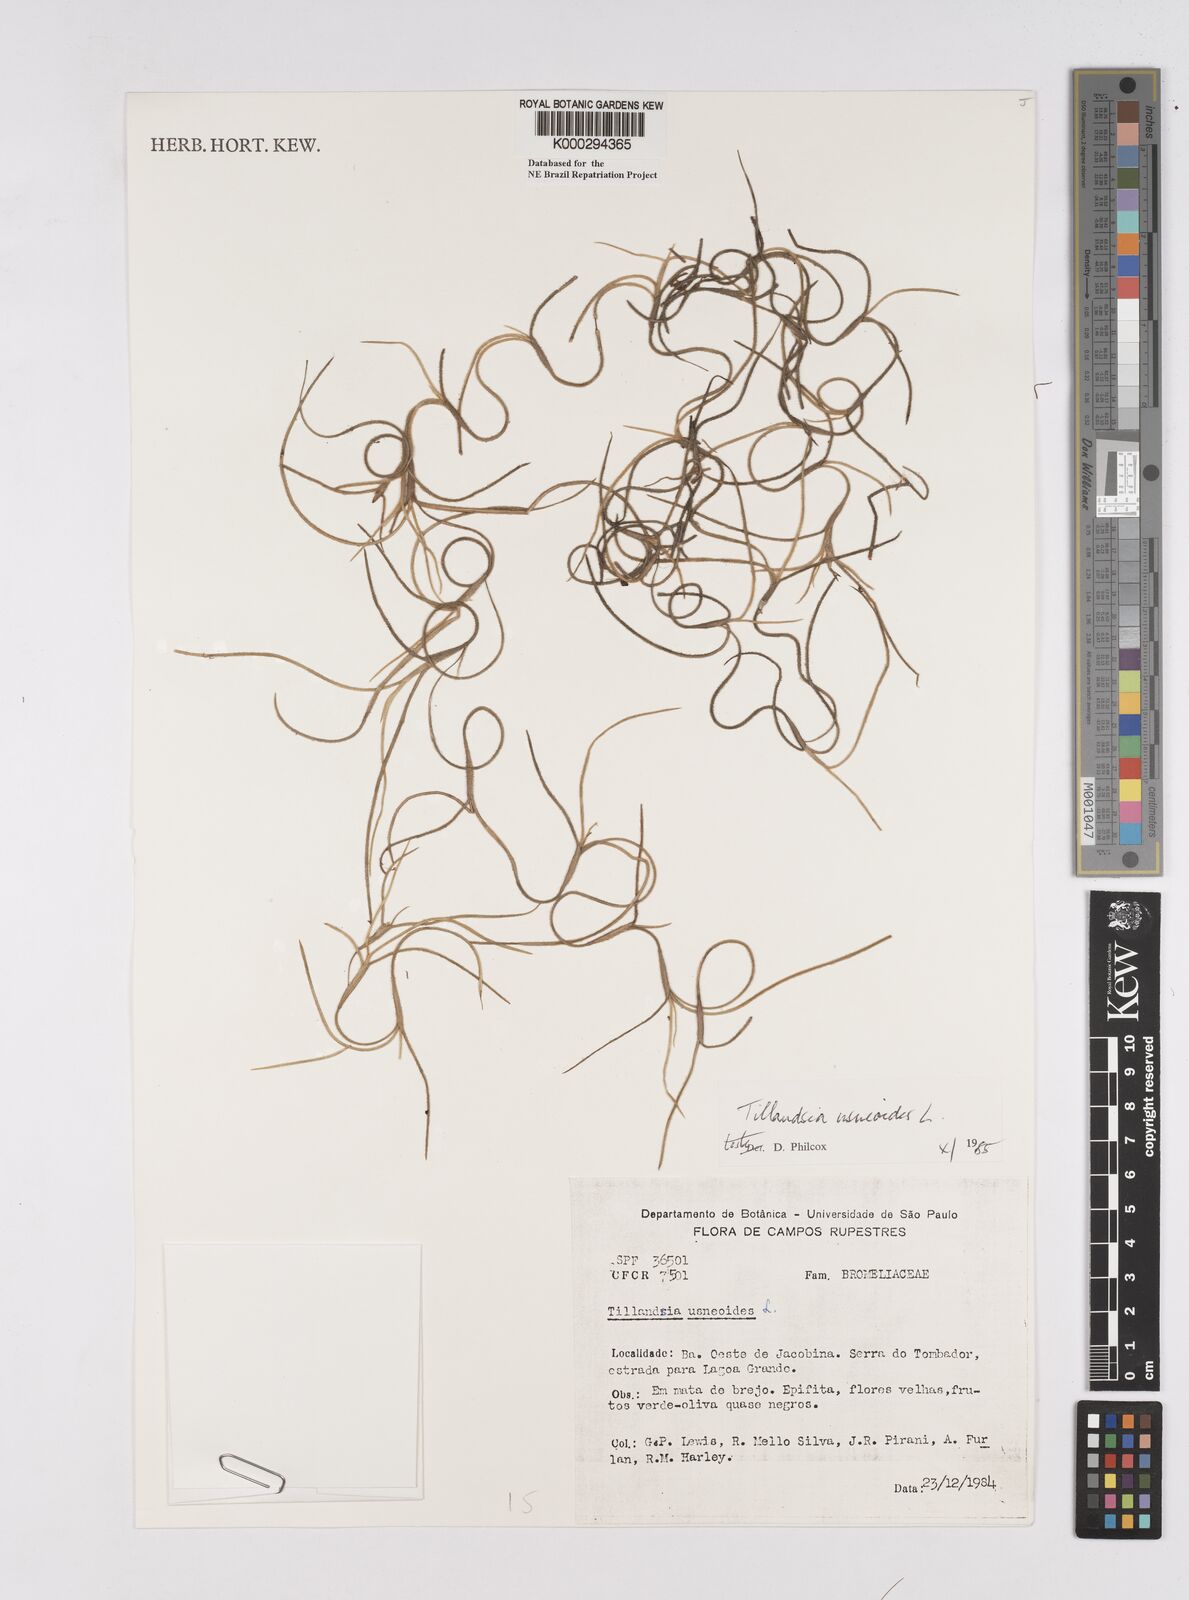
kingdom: Plantae
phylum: Tracheophyta
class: Liliopsida
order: Poales
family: Bromeliaceae
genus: Tillandsia
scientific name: Tillandsia usneoides
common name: Spanish moss
